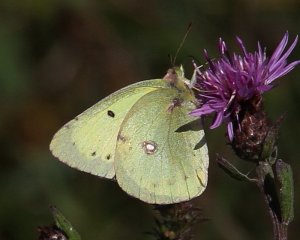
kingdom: Animalia
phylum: Arthropoda
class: Insecta
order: Lepidoptera
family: Pieridae
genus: Colias
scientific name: Colias philodice
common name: Clouded Sulphur
